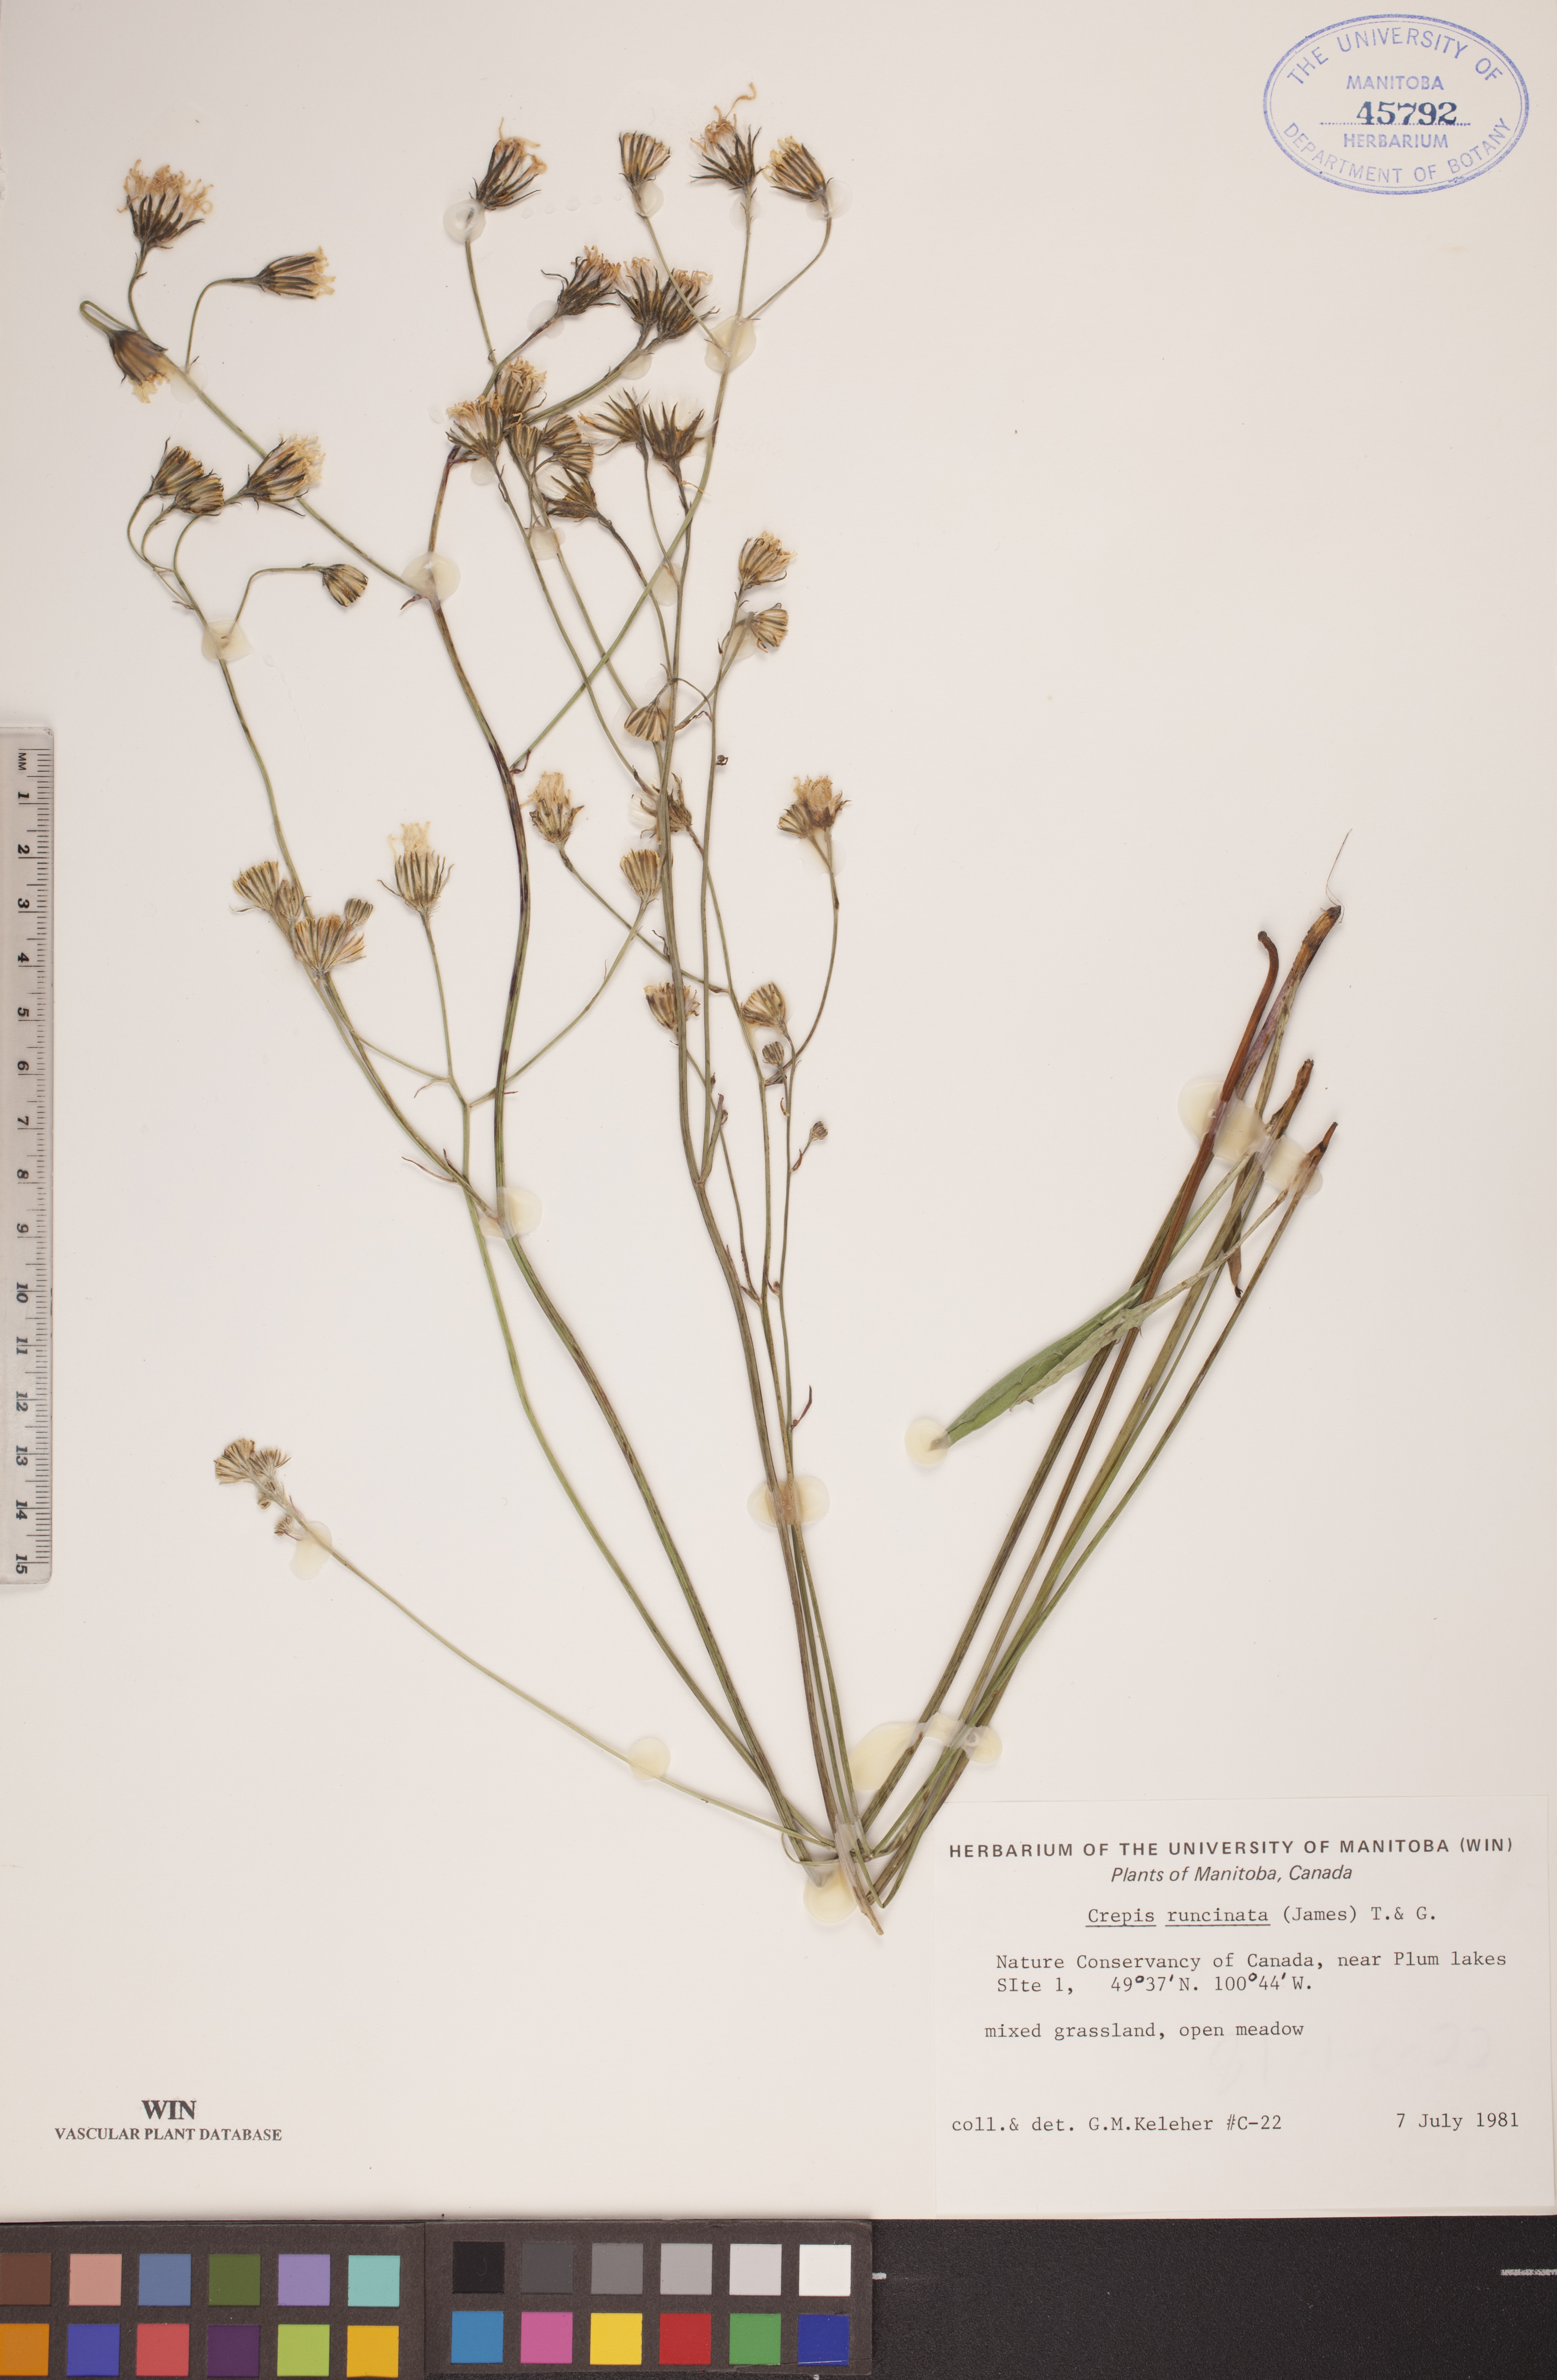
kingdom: Plantae
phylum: Tracheophyta
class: Magnoliopsida
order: Asterales
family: Asteraceae
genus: Crepis
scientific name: Crepis runcinata
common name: Dandelion hawksbeard
